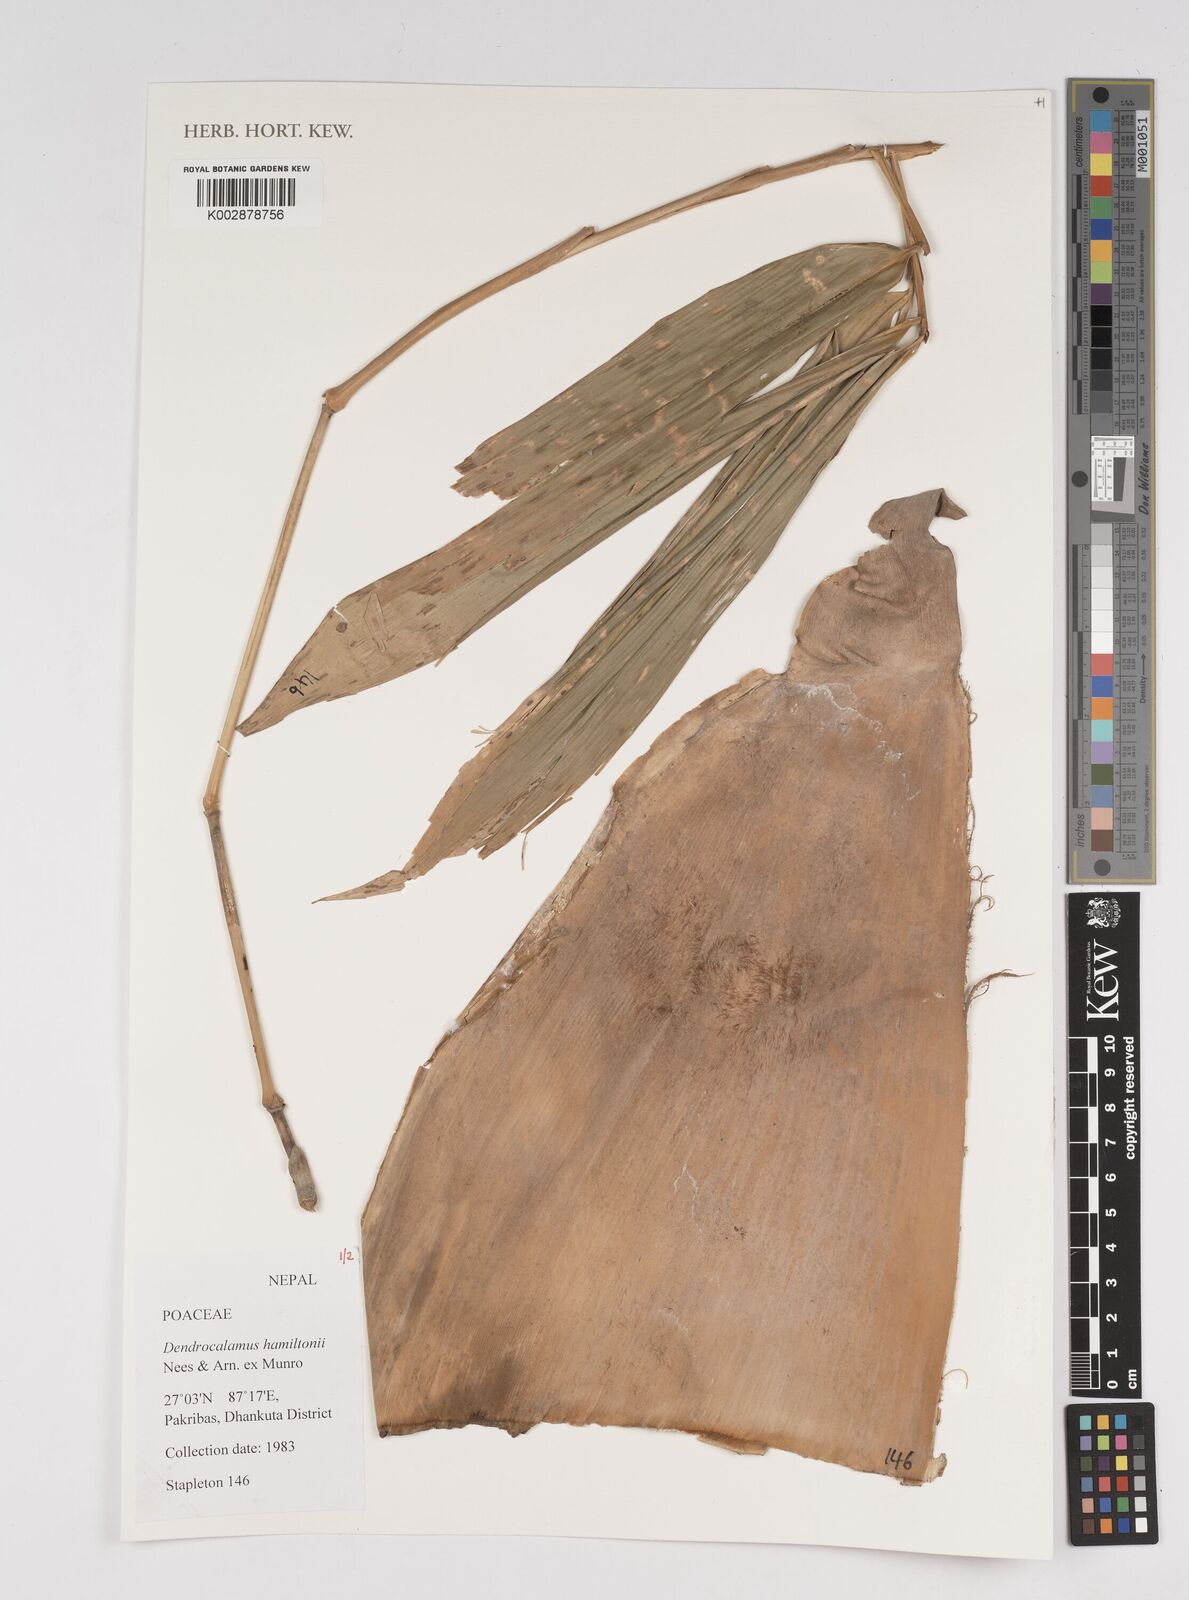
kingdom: Plantae
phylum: Tracheophyta
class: Liliopsida
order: Poales
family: Poaceae
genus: Dendrocalamus
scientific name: Dendrocalamus hamiltonii
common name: Tama bamboo
